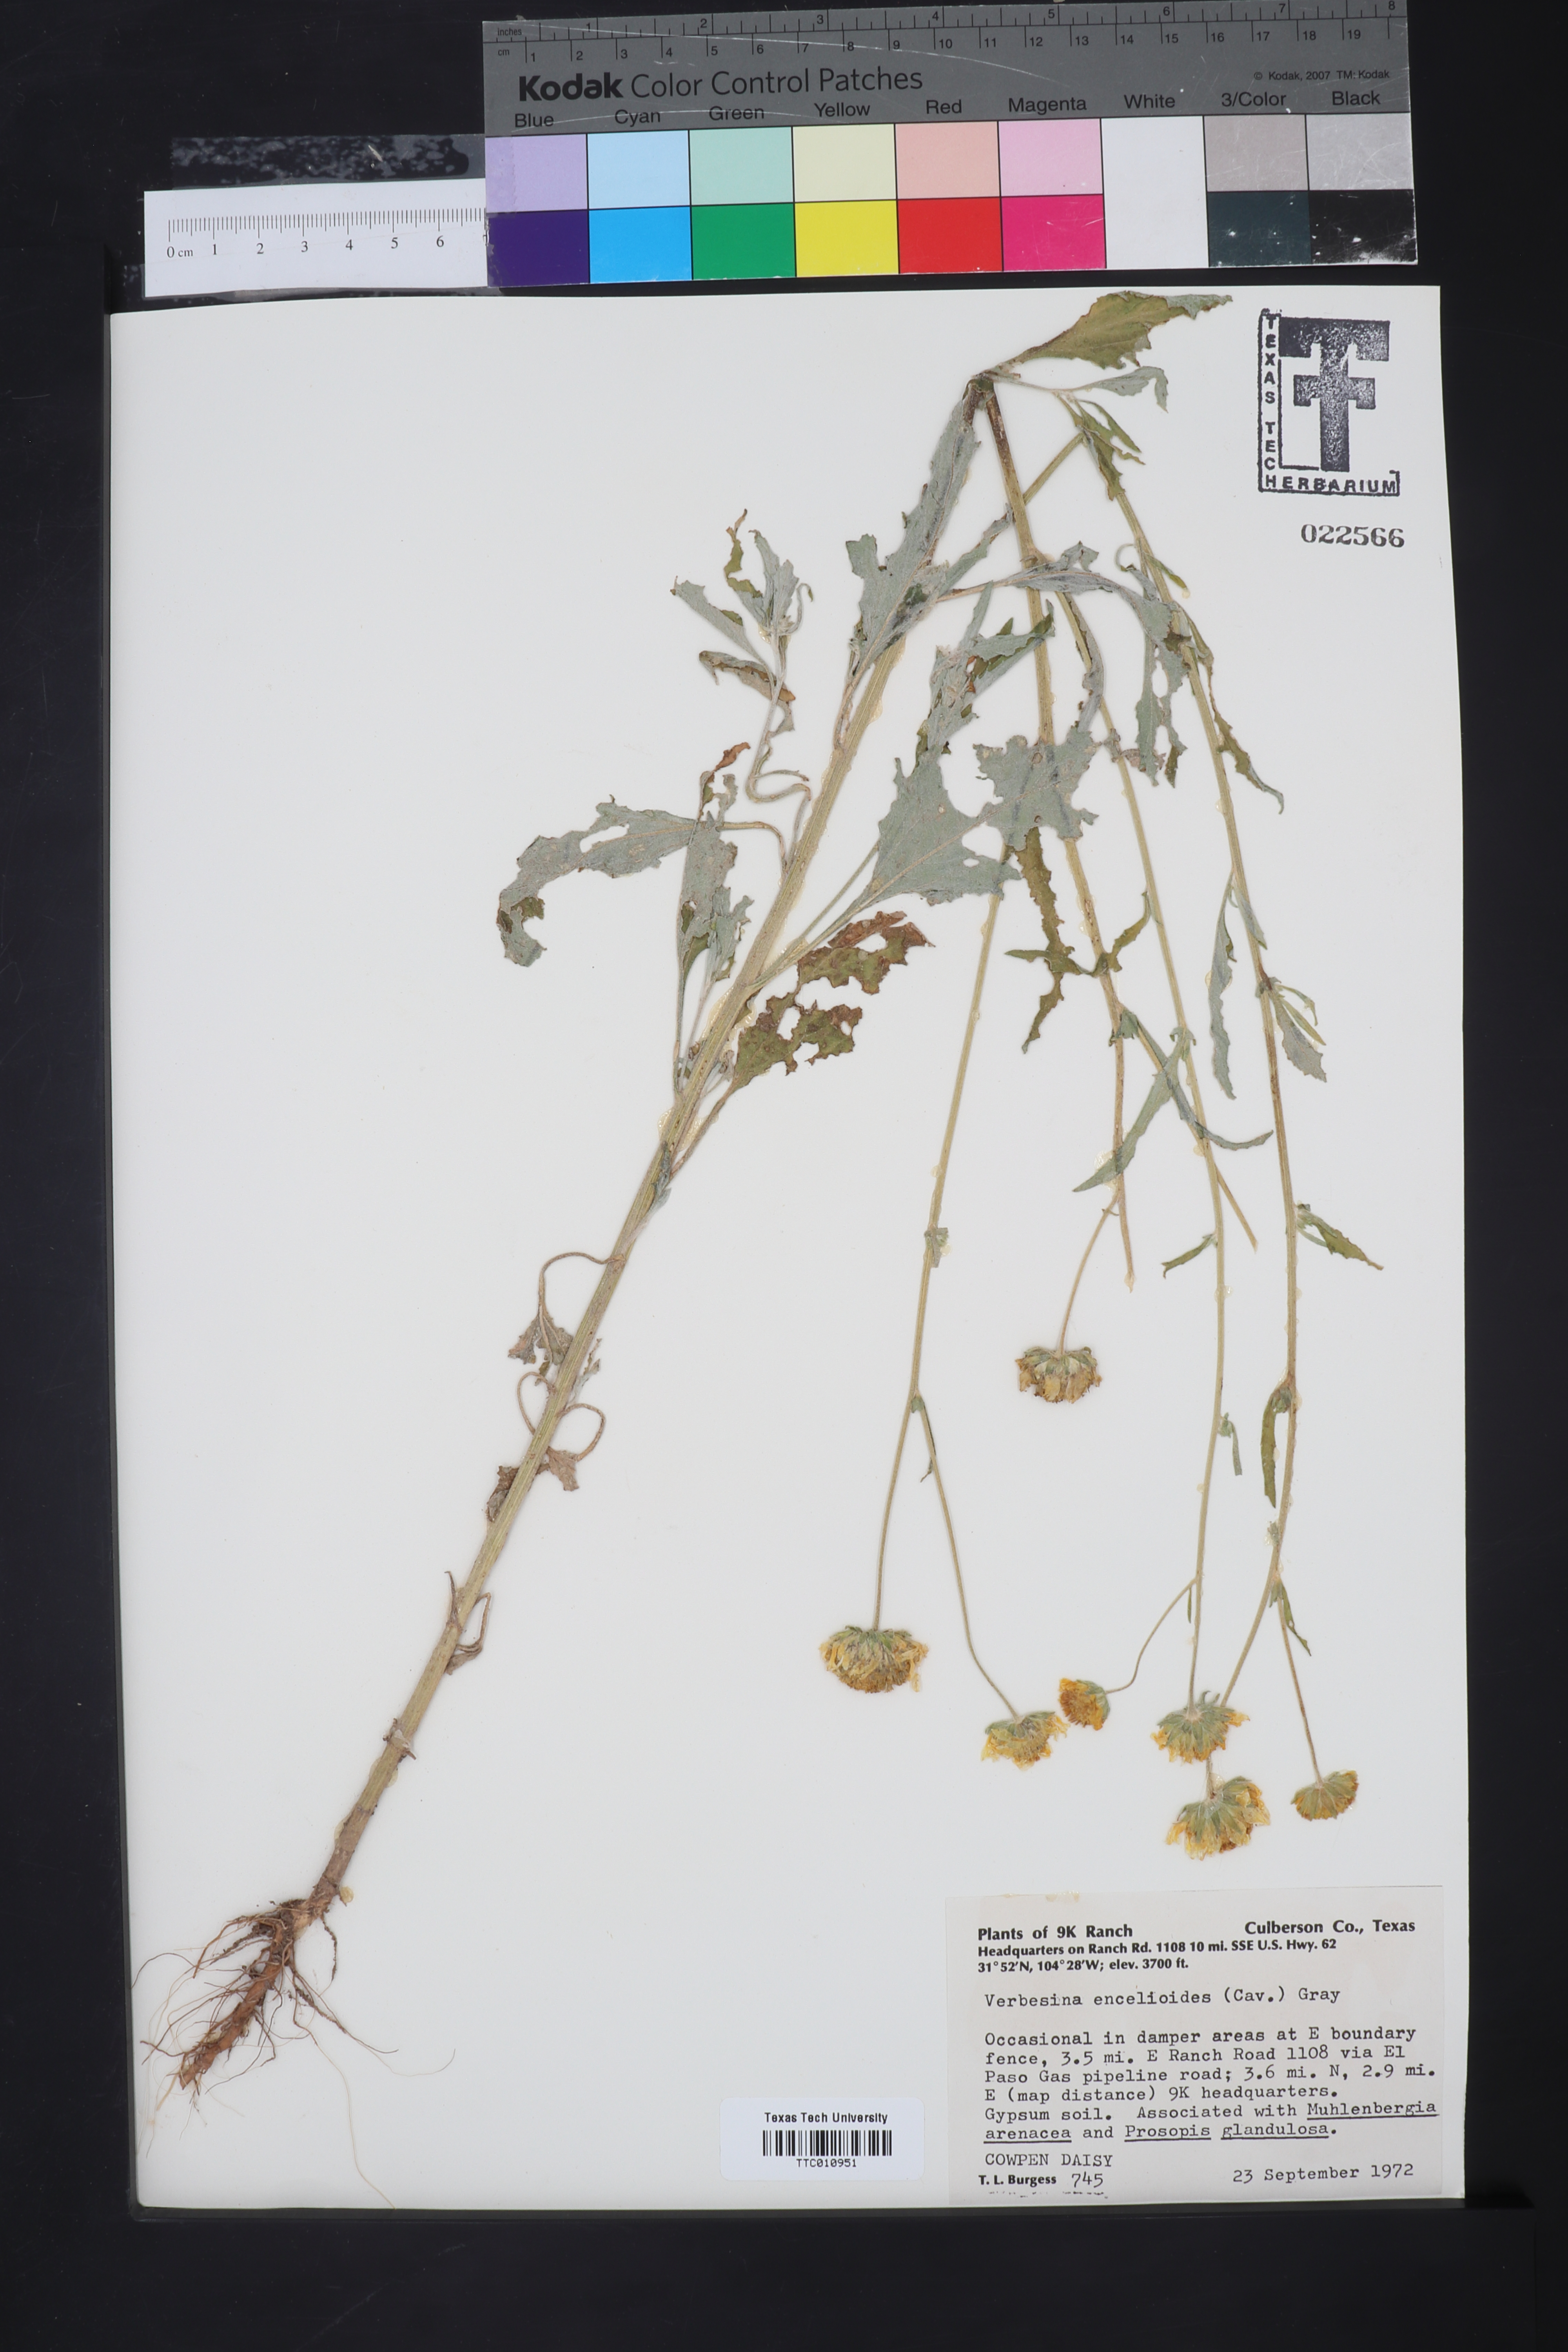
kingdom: Plantae
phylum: Tracheophyta
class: Magnoliopsida
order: Asterales
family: Asteraceae
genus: Verbesina
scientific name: Verbesina encelioides
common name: Golden crownbeard
